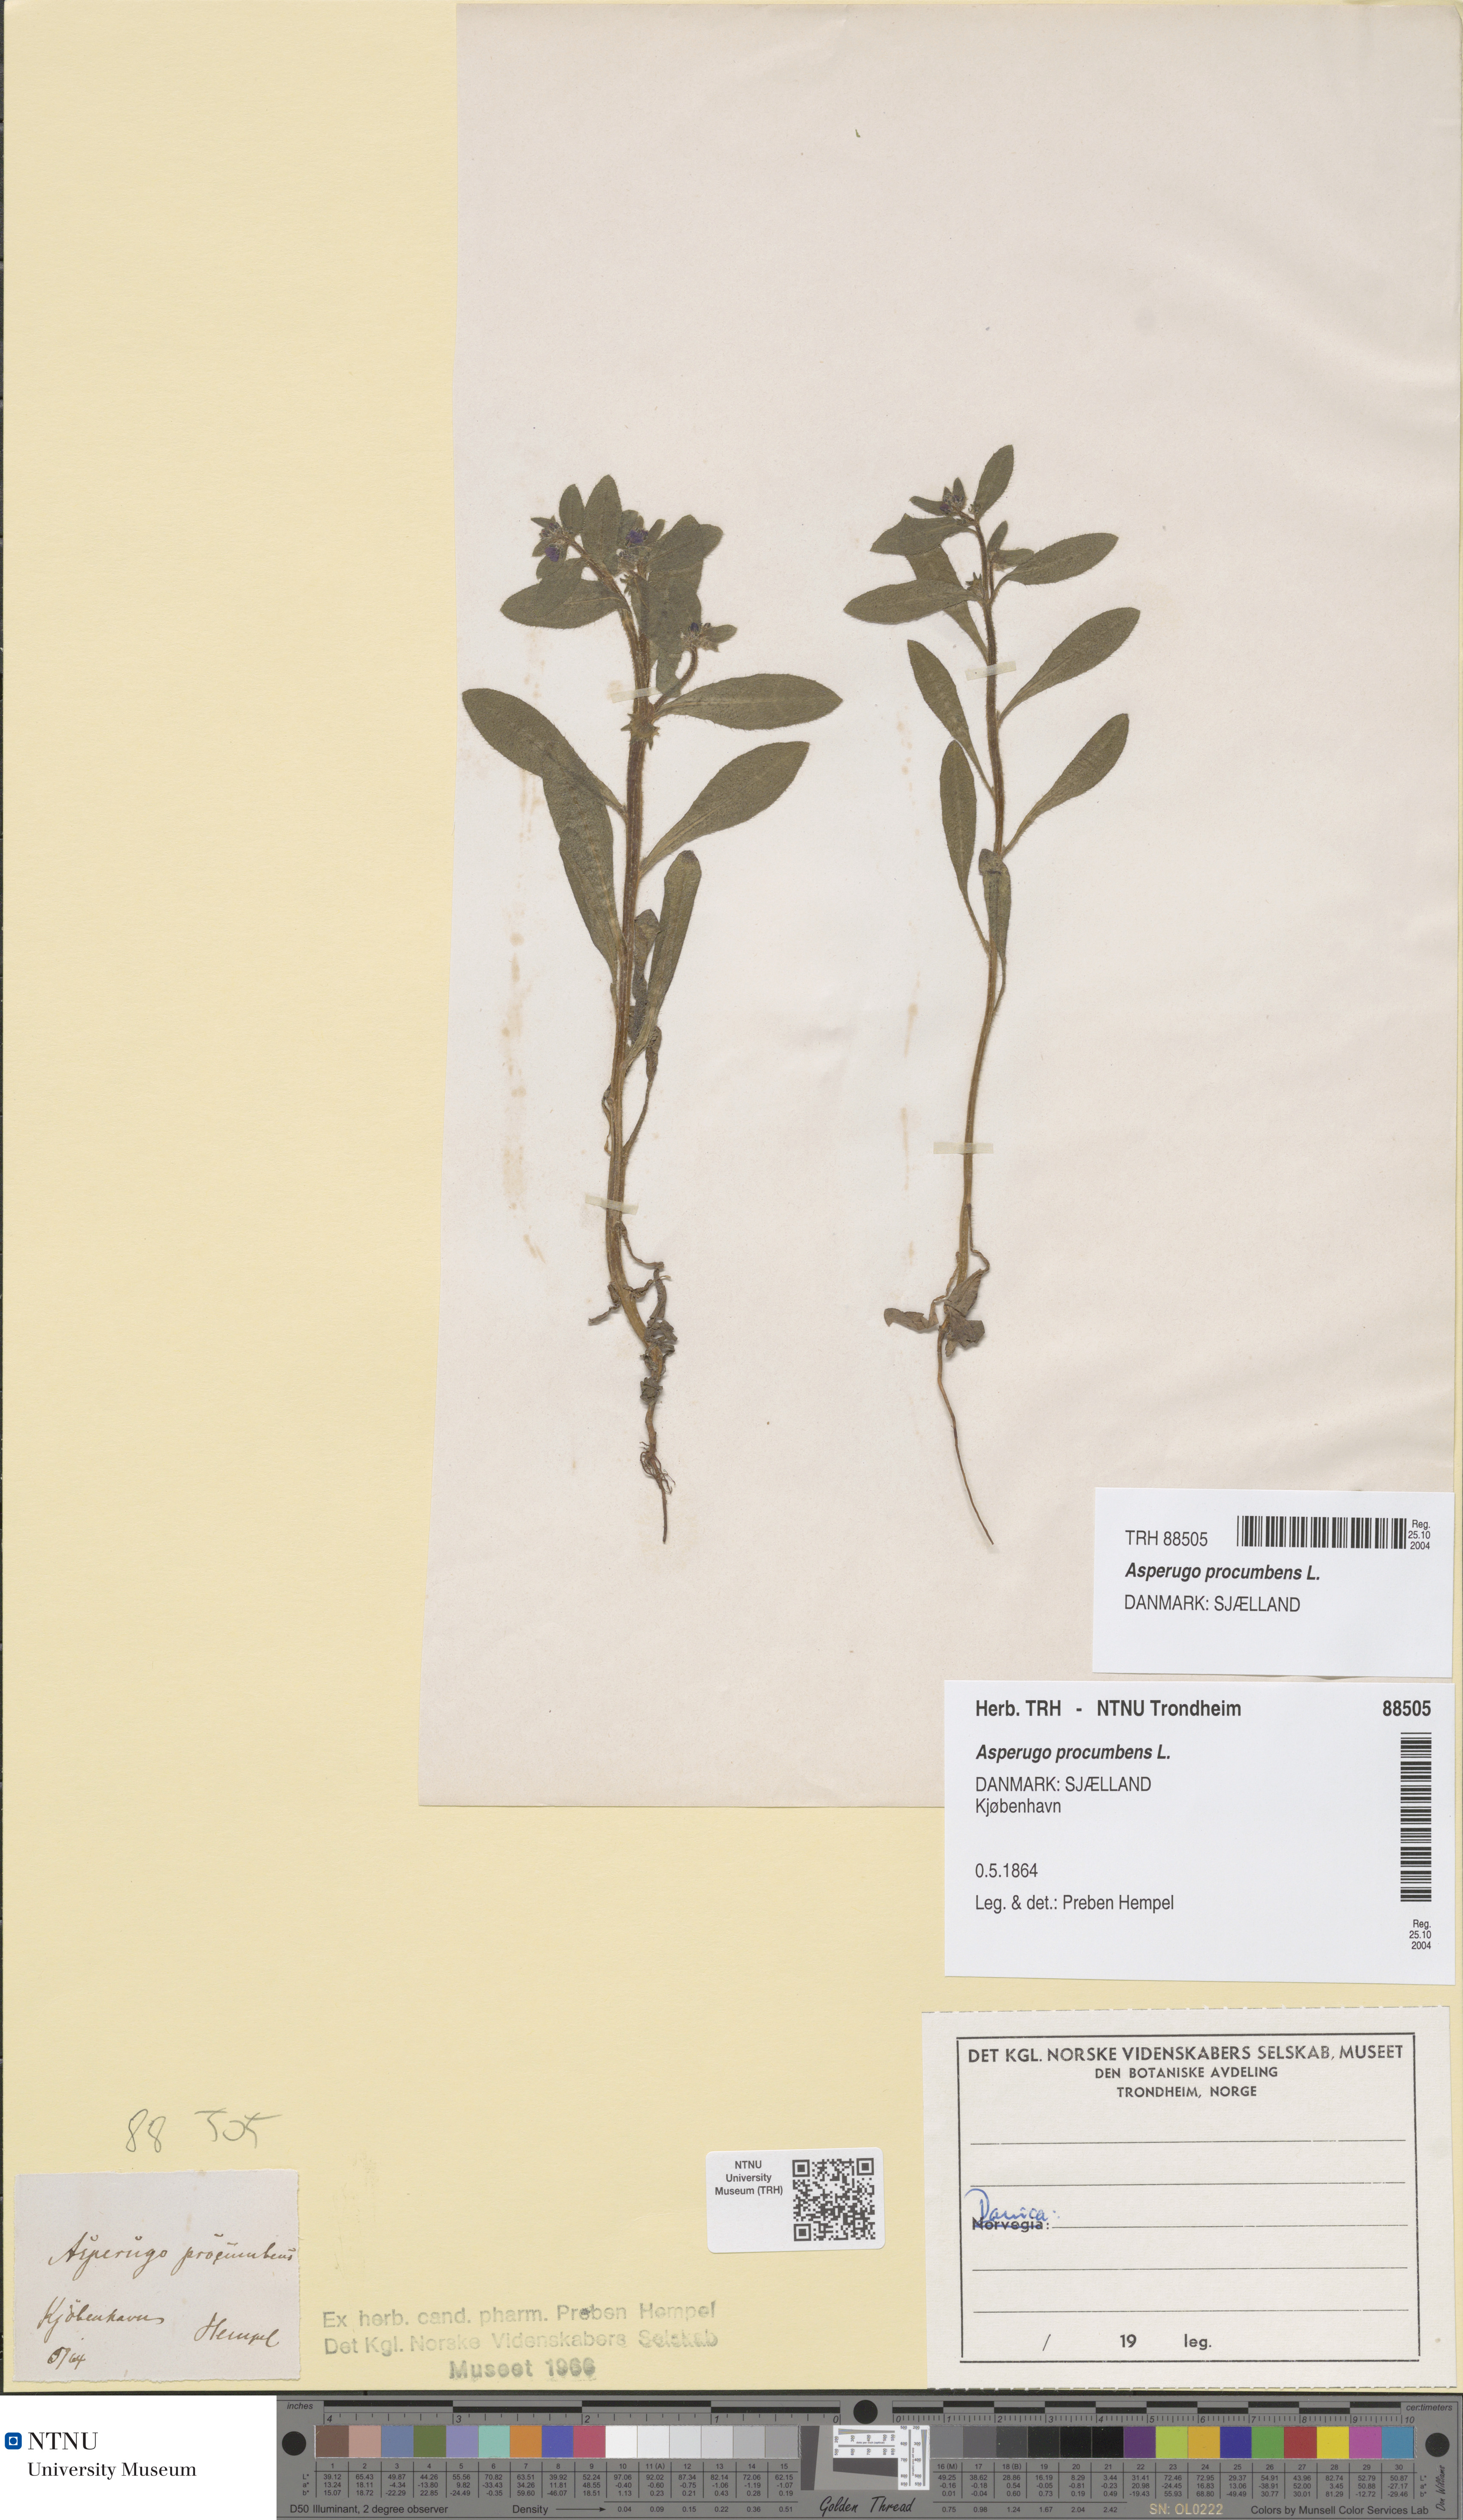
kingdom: Plantae
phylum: Tracheophyta
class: Magnoliopsida
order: Boraginales
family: Boraginaceae
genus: Asperugo
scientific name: Asperugo procumbens
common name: Madwort
